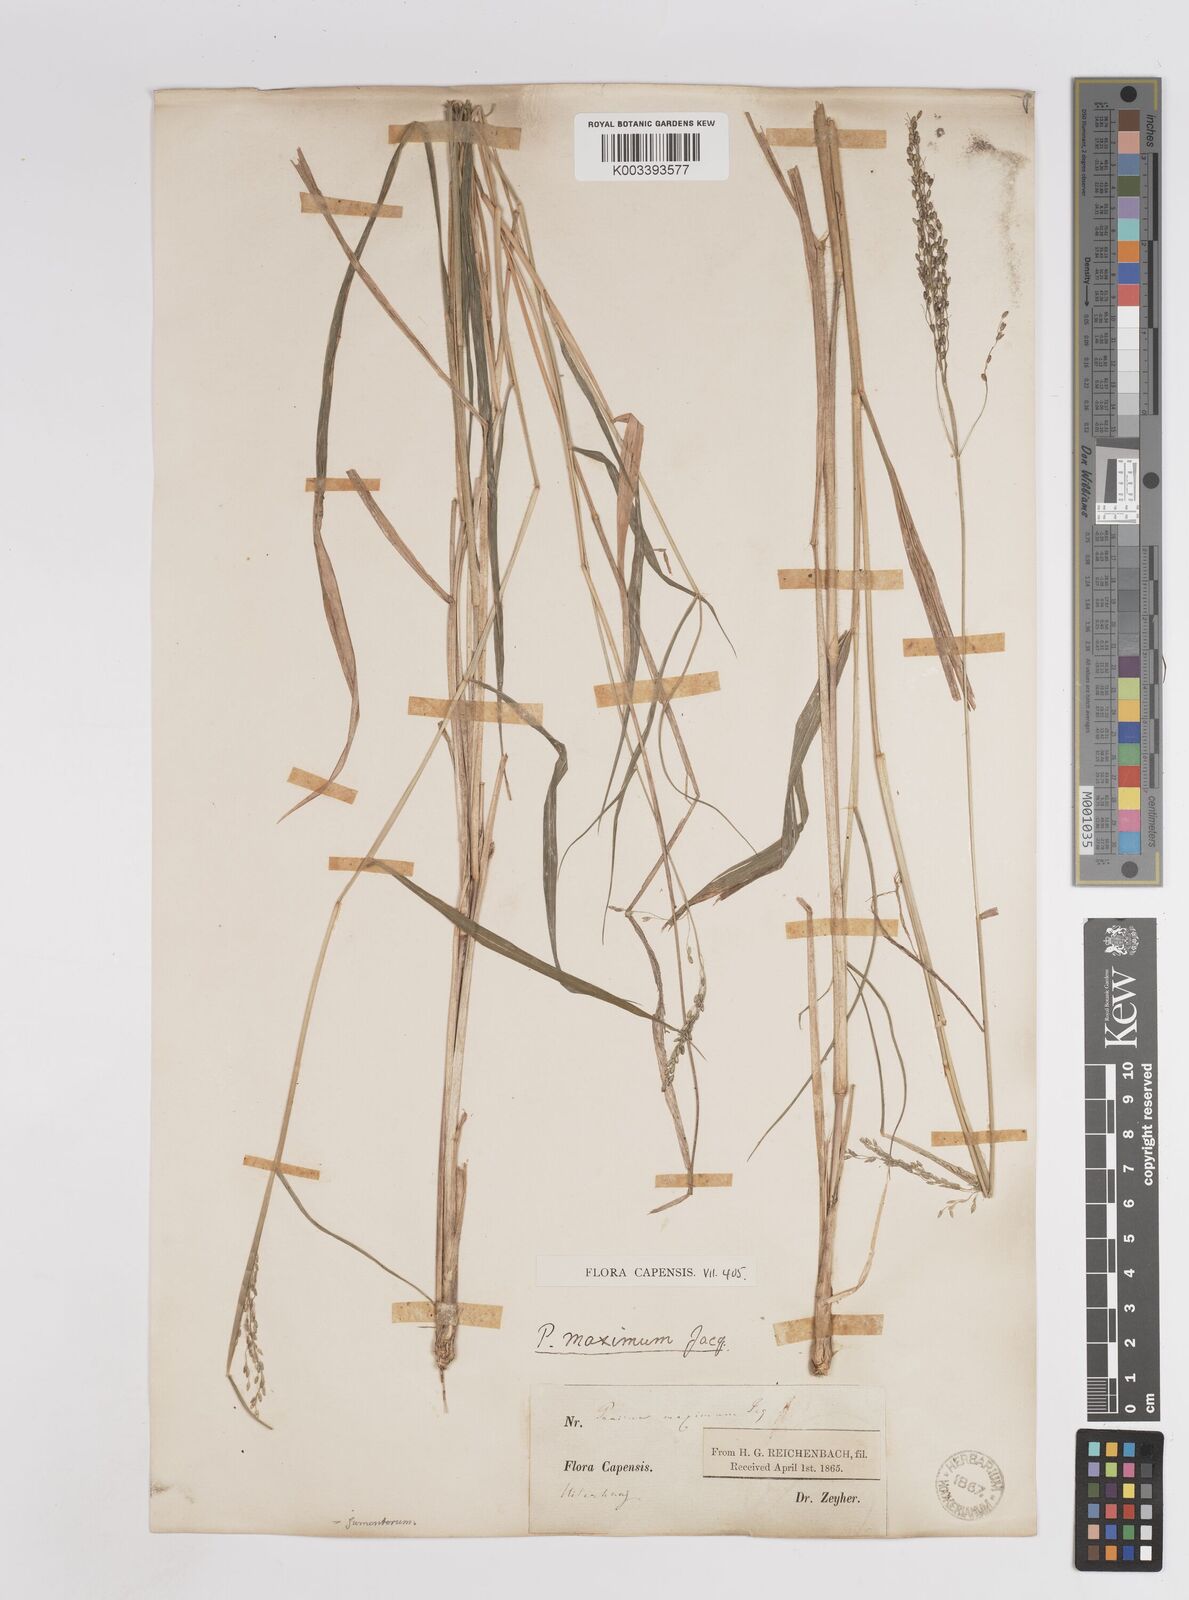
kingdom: Plantae
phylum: Tracheophyta
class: Liliopsida
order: Poales
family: Poaceae
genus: Megathyrsus
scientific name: Megathyrsus maximus
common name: Guineagrass
